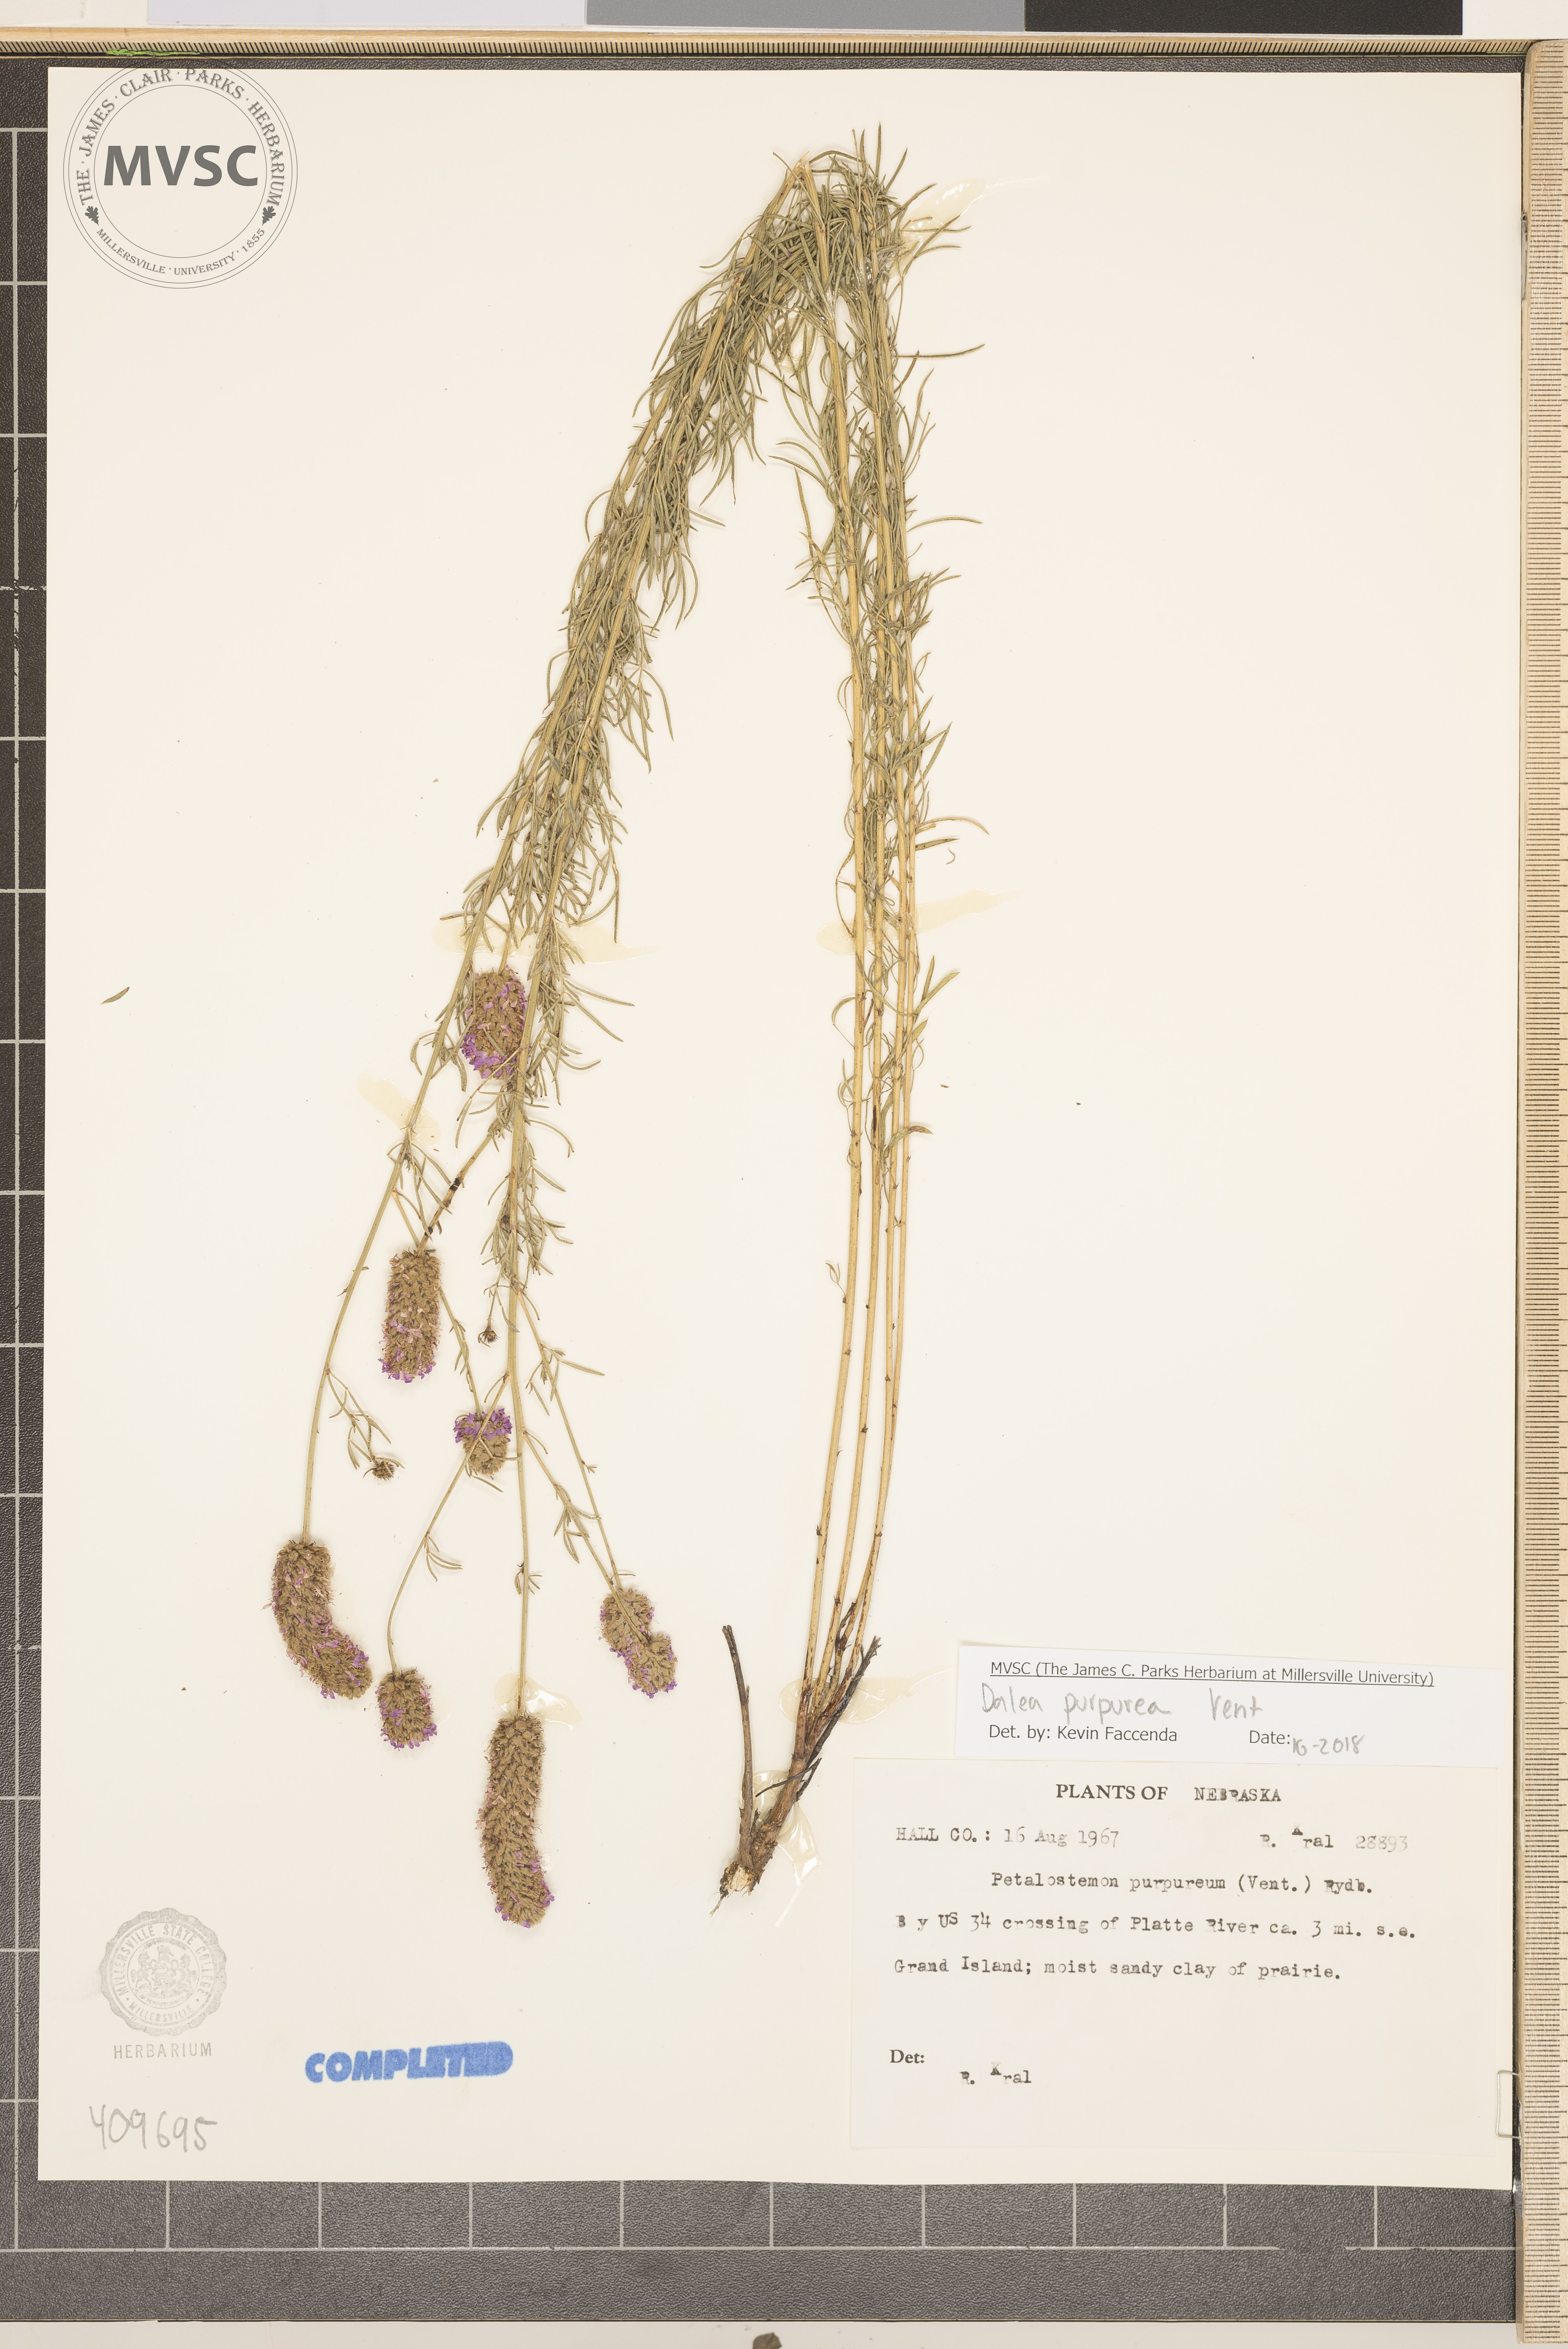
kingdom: Plantae
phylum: Tracheophyta
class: Magnoliopsida
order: Fabales
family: Fabaceae
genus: Dalea
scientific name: Dalea purpurea
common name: Purple prairie-clover
